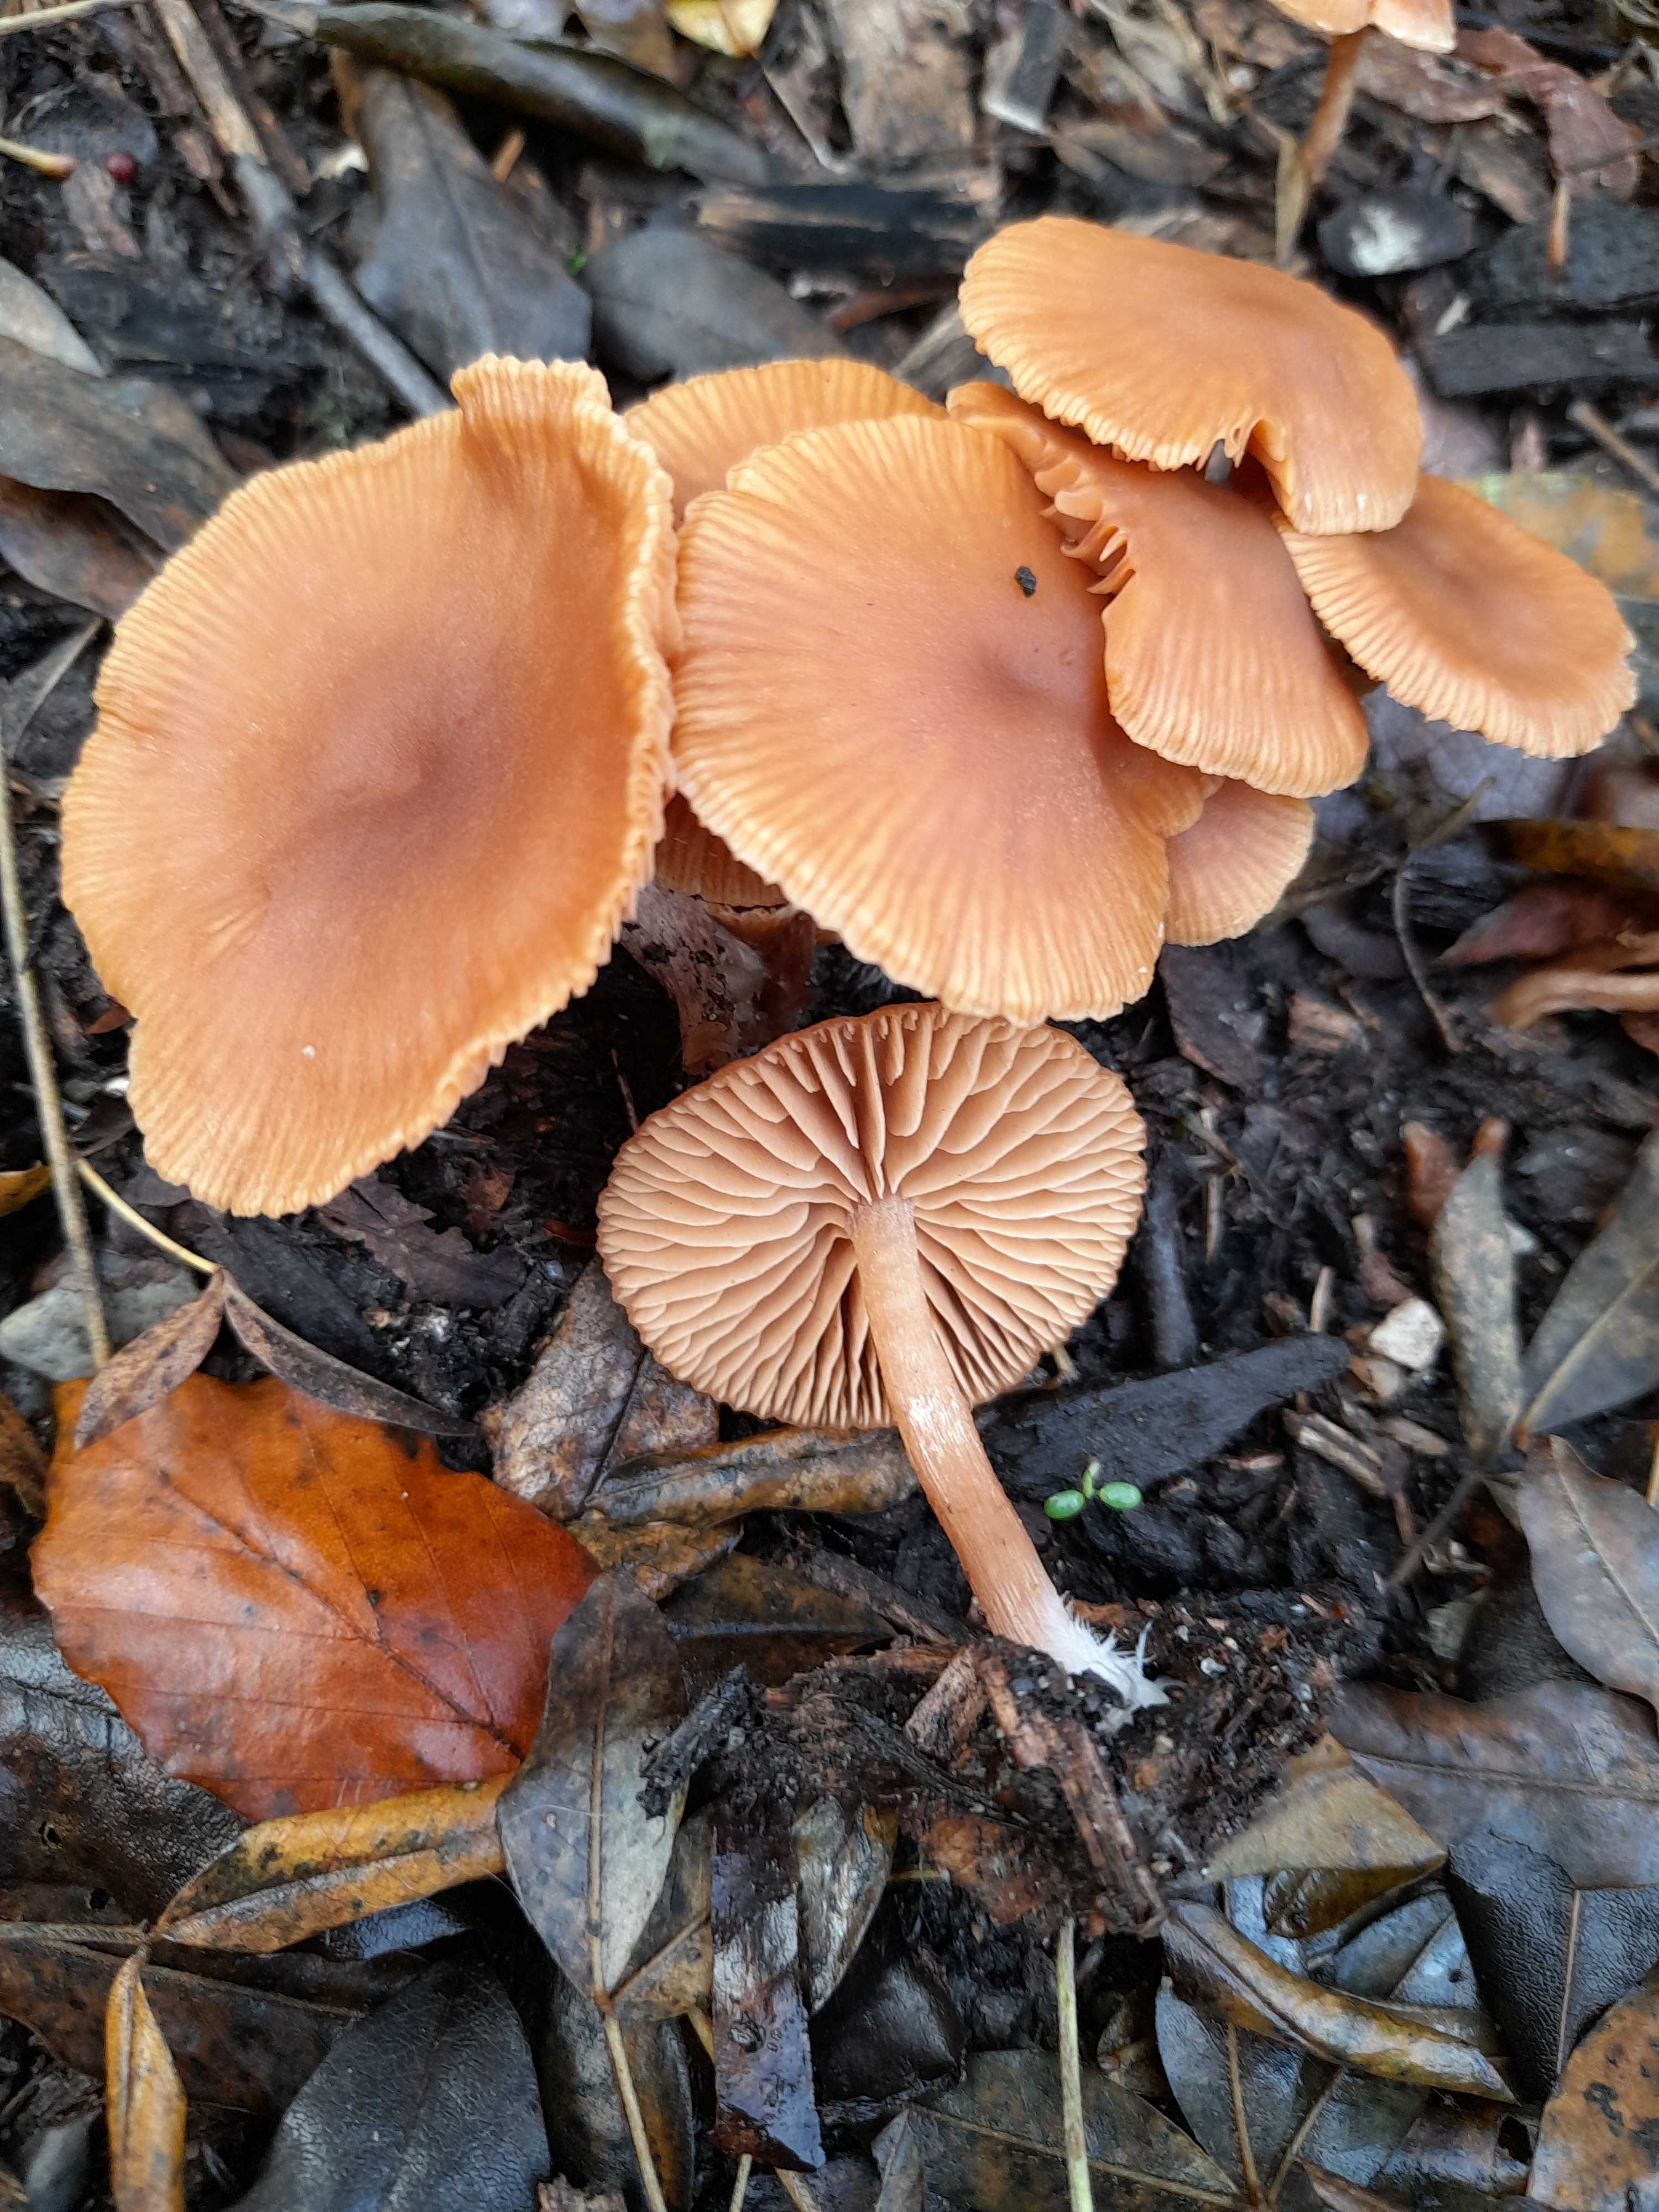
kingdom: Fungi
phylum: Basidiomycota
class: Agaricomycetes
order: Agaricales
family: Tubariaceae
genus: Tubaria
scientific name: Tubaria furfuracea
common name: kliddet fnughat
